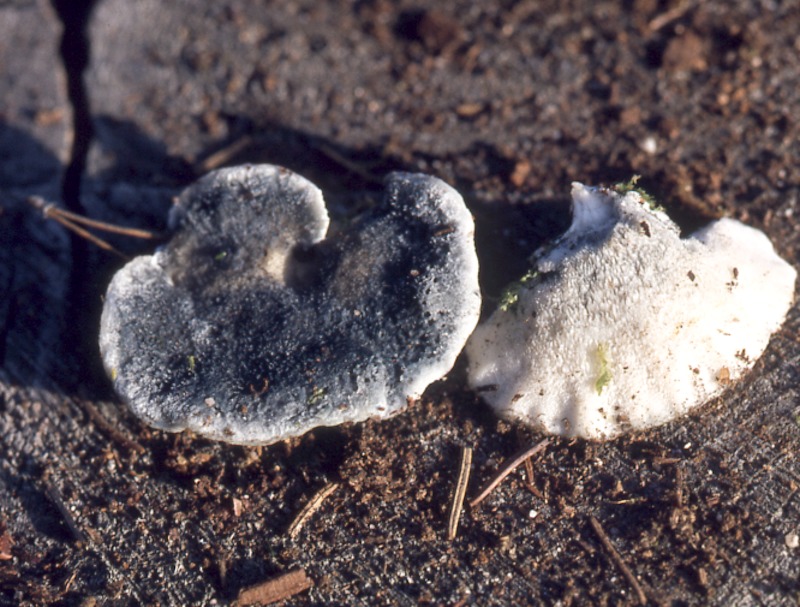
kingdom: Fungi
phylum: Basidiomycota
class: Agaricomycetes
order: Polyporales
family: Polyporaceae
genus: Cyanosporus
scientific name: Cyanosporus caesius
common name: Blue cheese polypore
